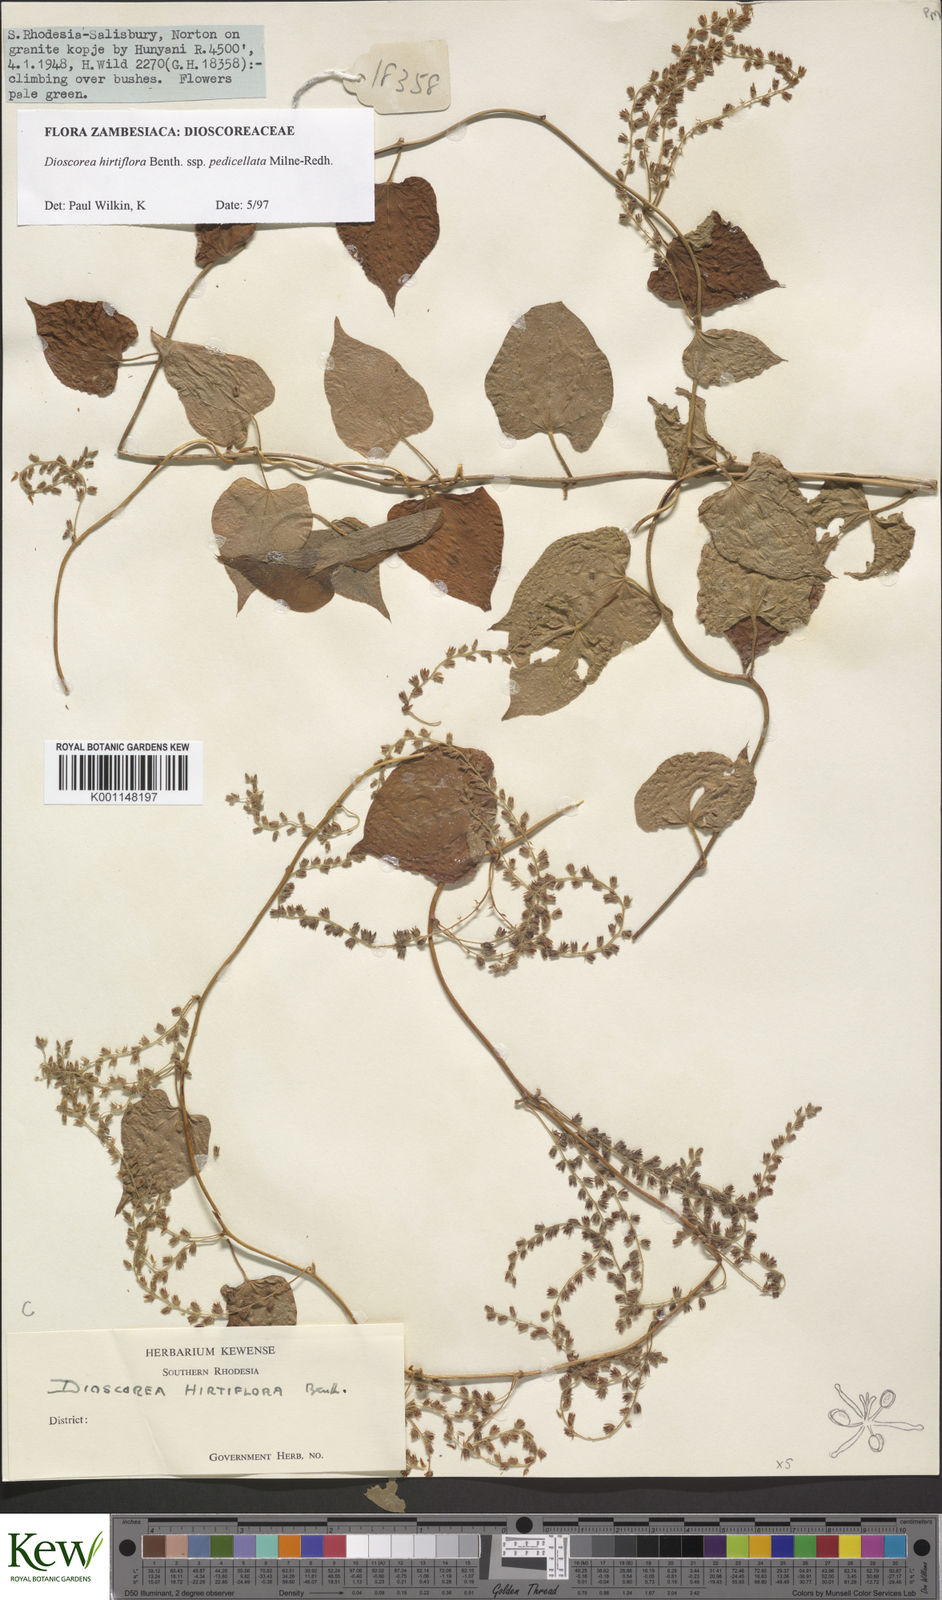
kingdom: Plantae
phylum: Tracheophyta
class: Liliopsida
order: Dioscoreales
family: Dioscoreaceae
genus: Dioscorea
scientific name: Dioscorea hirtiflora
